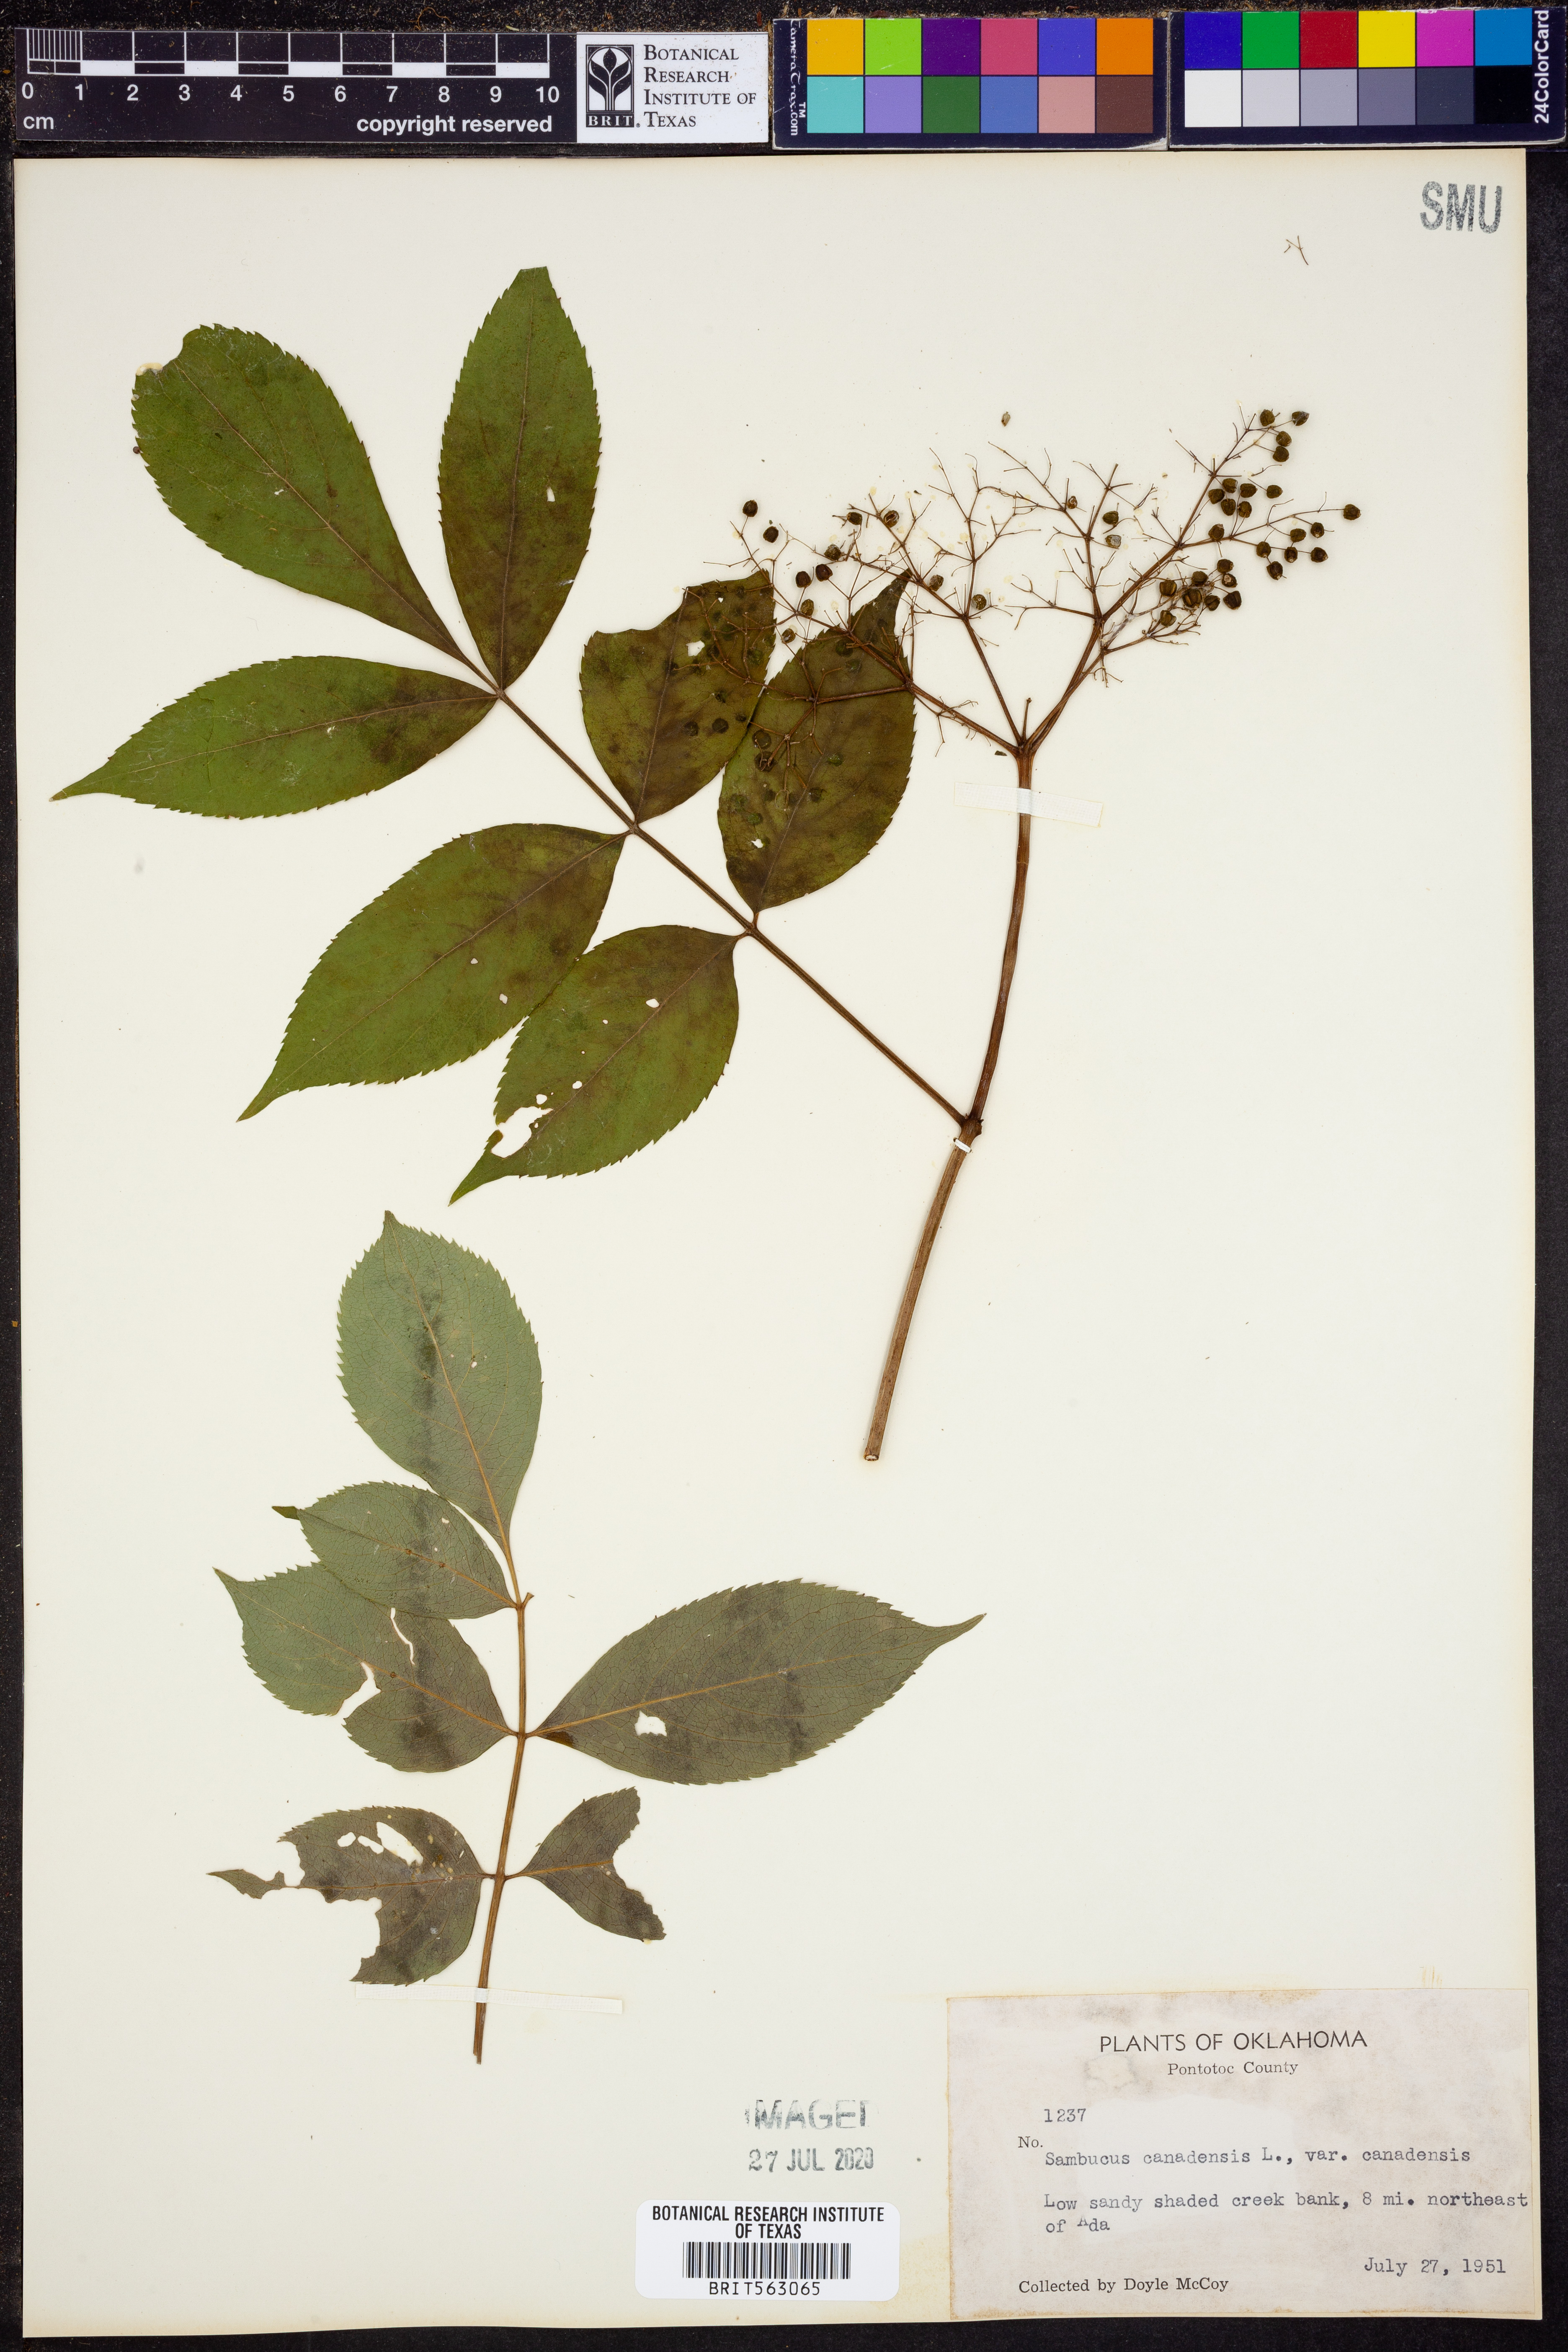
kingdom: Plantae
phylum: Tracheophyta
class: Magnoliopsida
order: Dipsacales
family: Viburnaceae
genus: Sambucus
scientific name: Sambucus canadensis
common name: American elder
